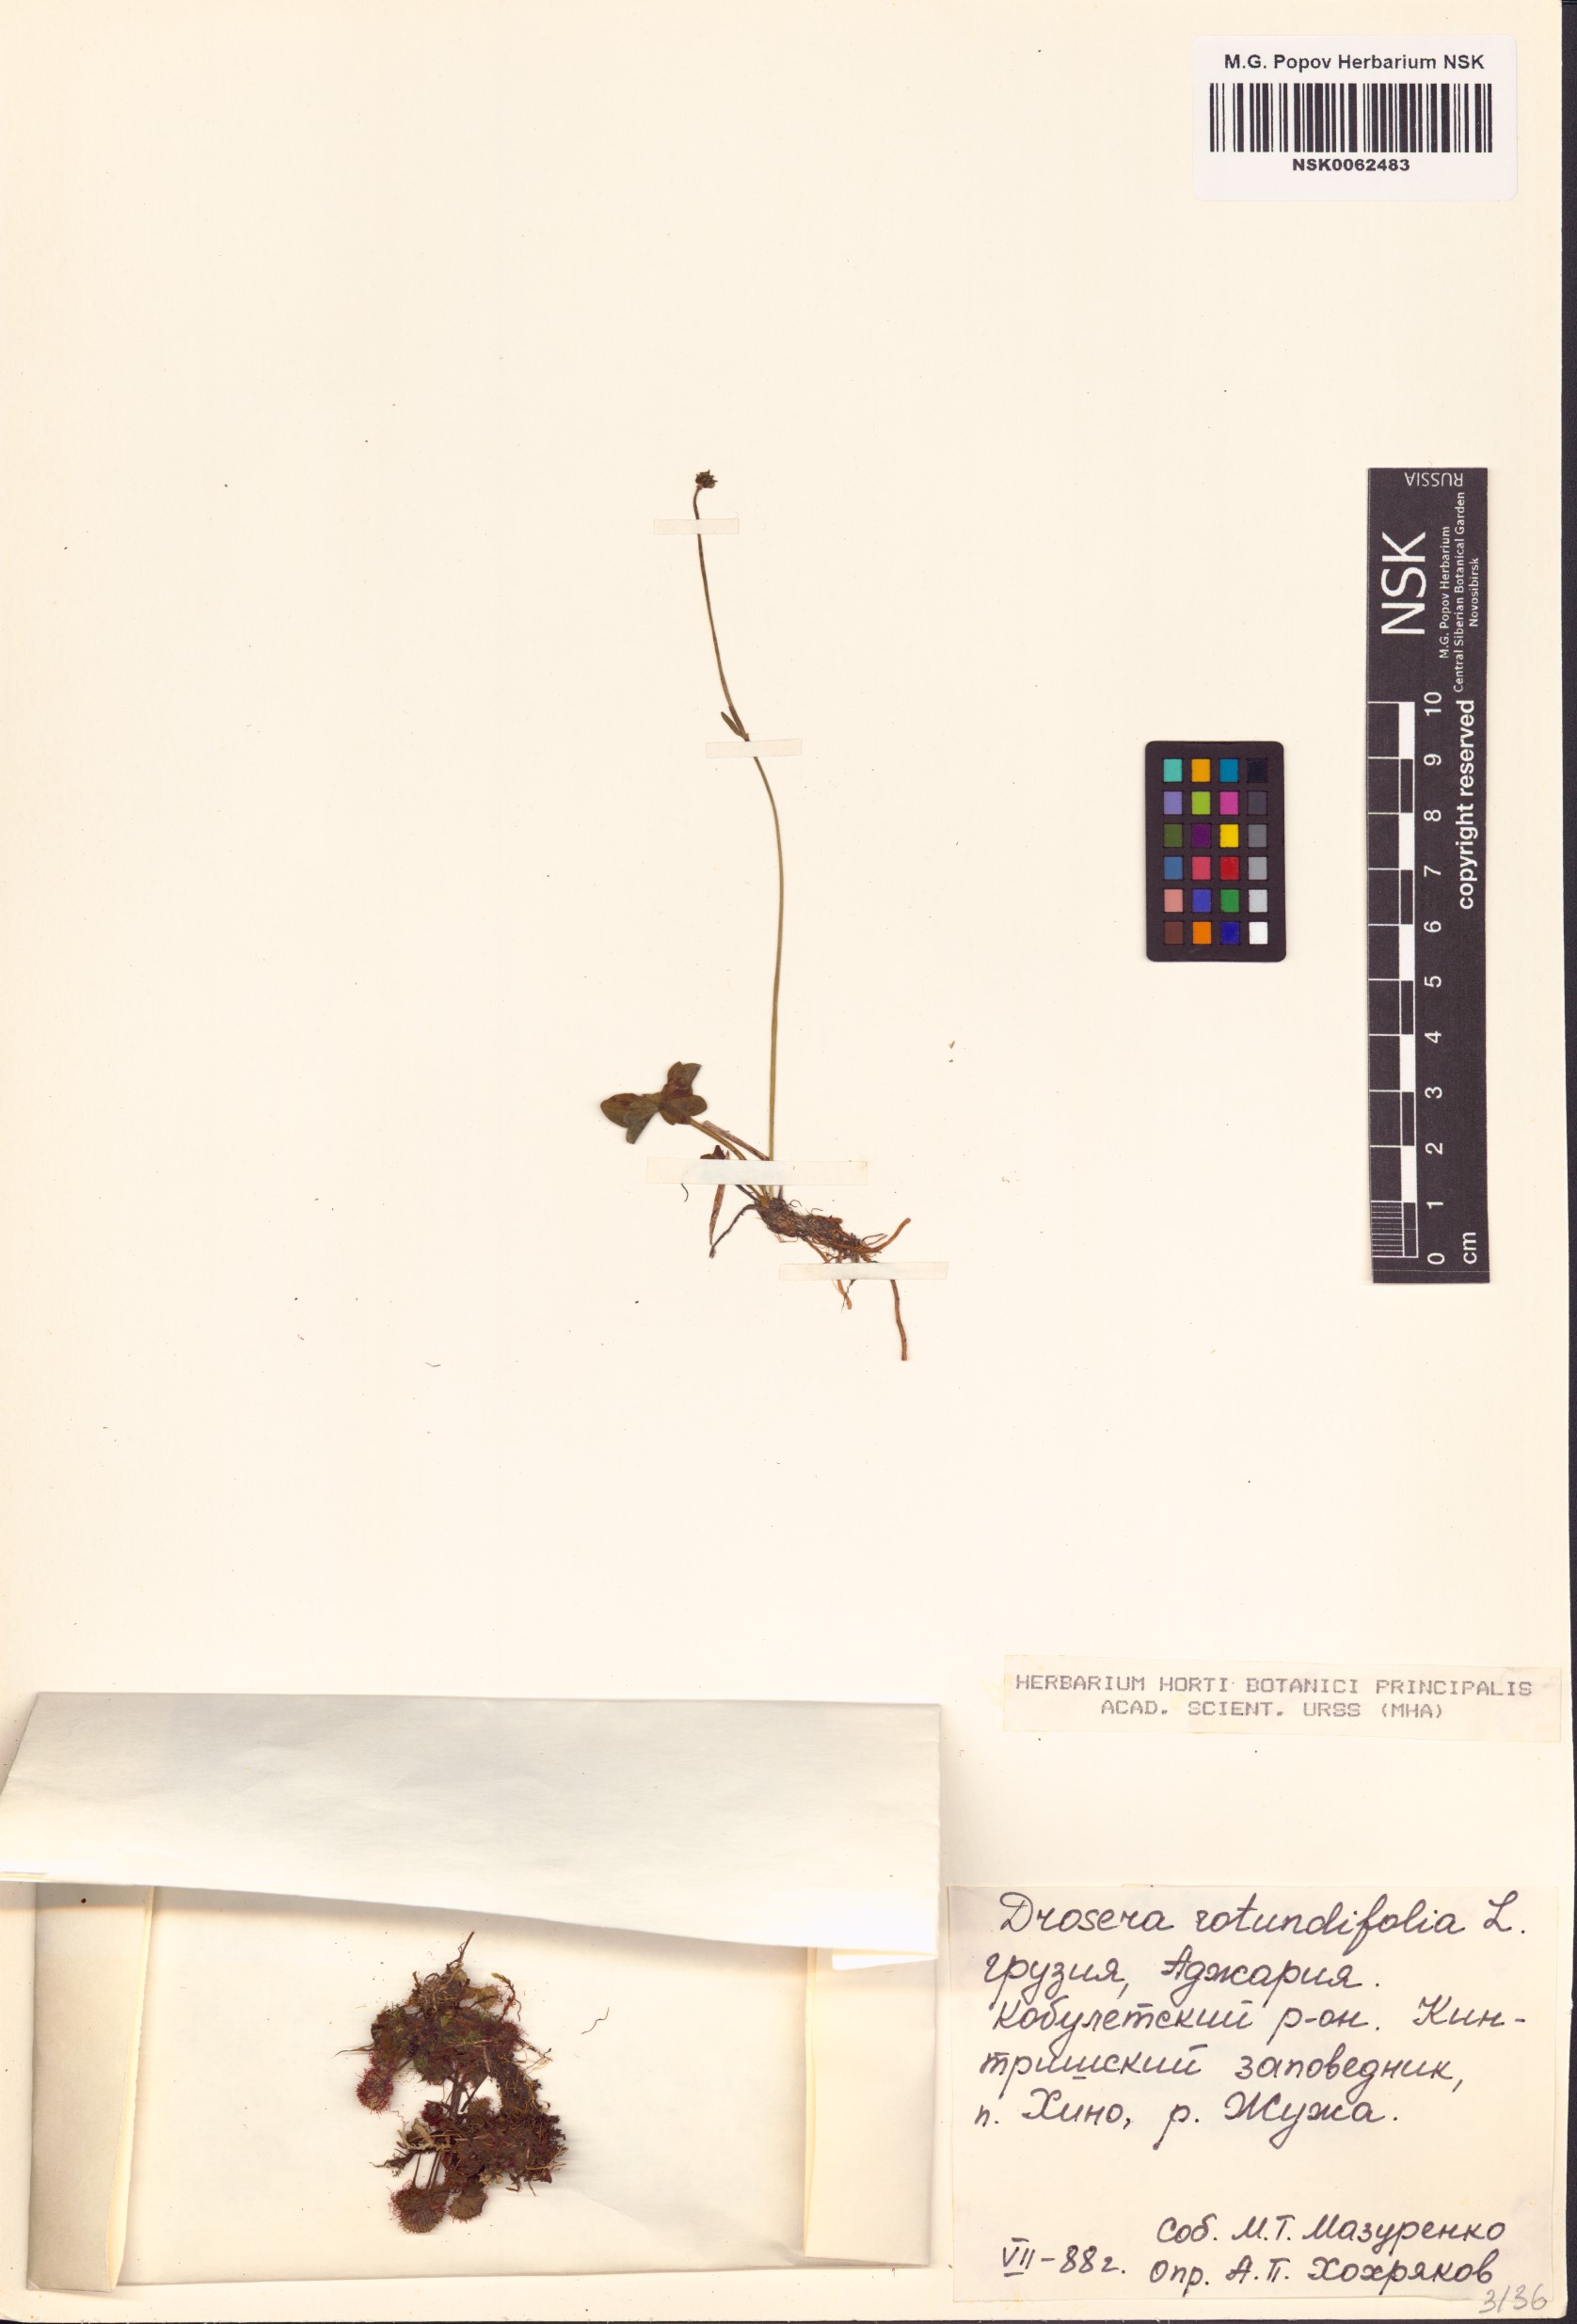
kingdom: Plantae
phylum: Tracheophyta
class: Magnoliopsida
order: Caryophyllales
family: Droseraceae
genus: Drosera
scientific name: Drosera rotundifolia
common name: Round-leaved sundew
